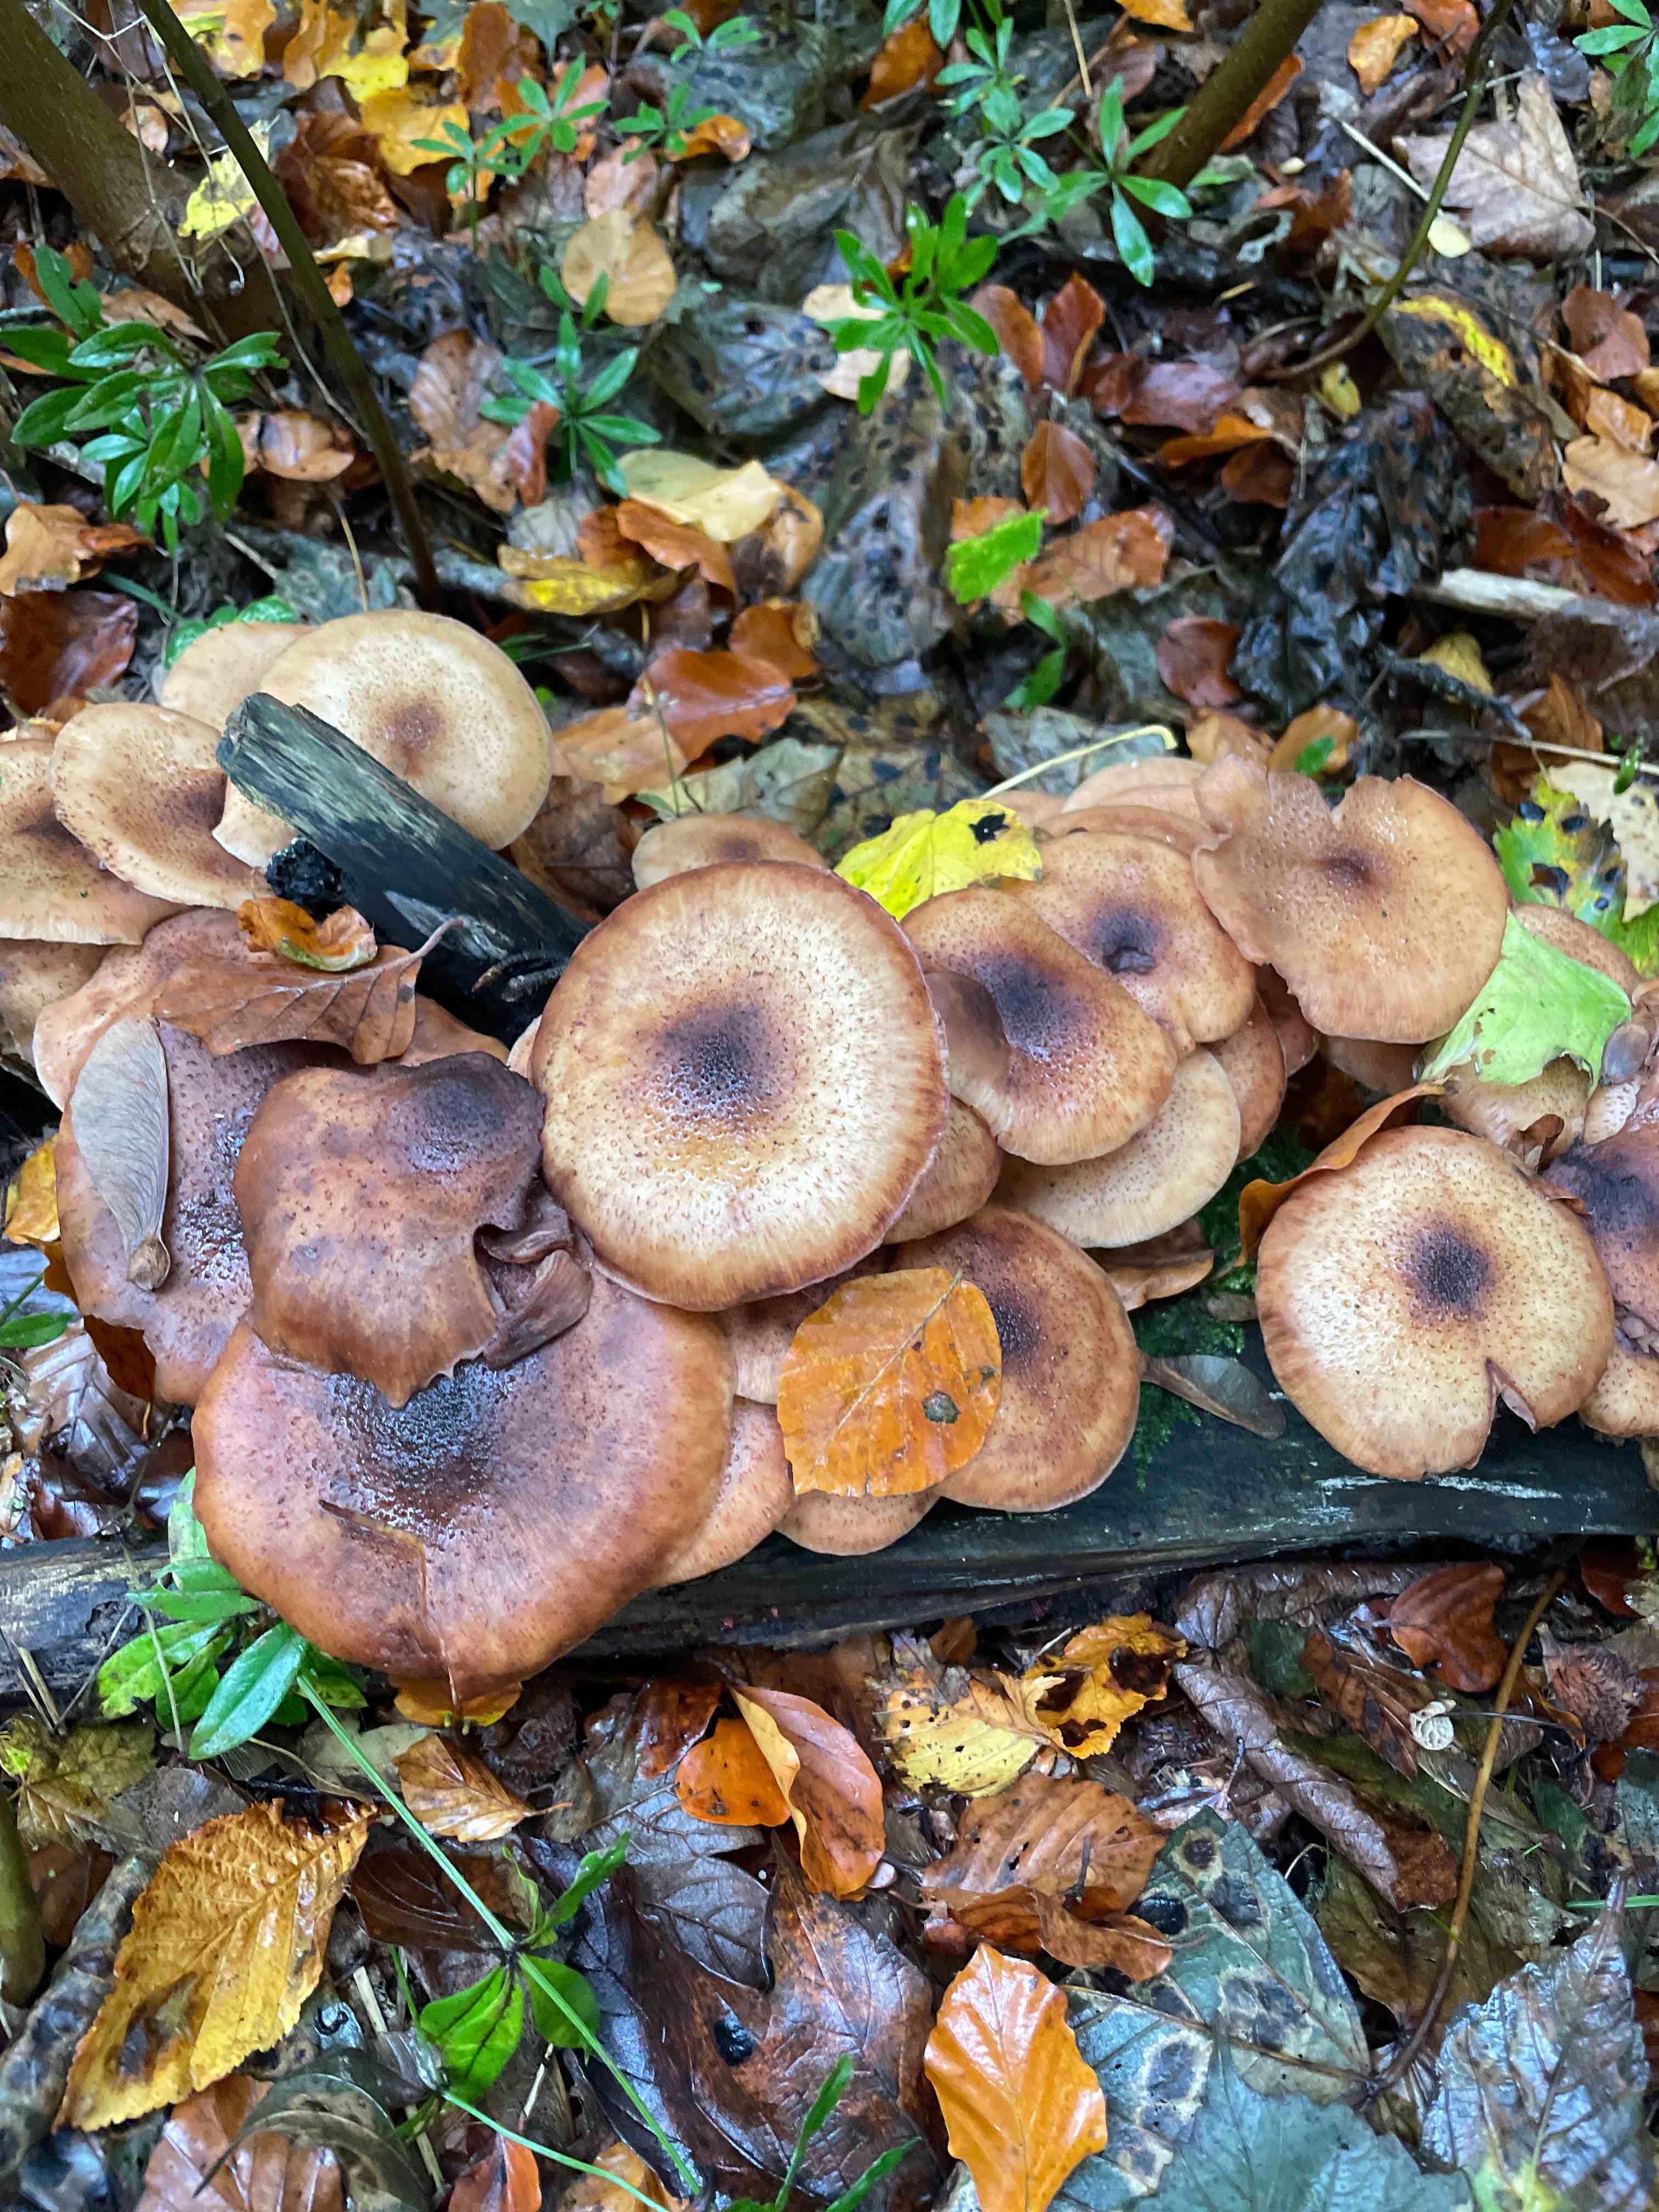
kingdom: Fungi
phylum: Basidiomycota
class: Agaricomycetes
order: Agaricales
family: Physalacriaceae
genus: Armillaria
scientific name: Armillaria
